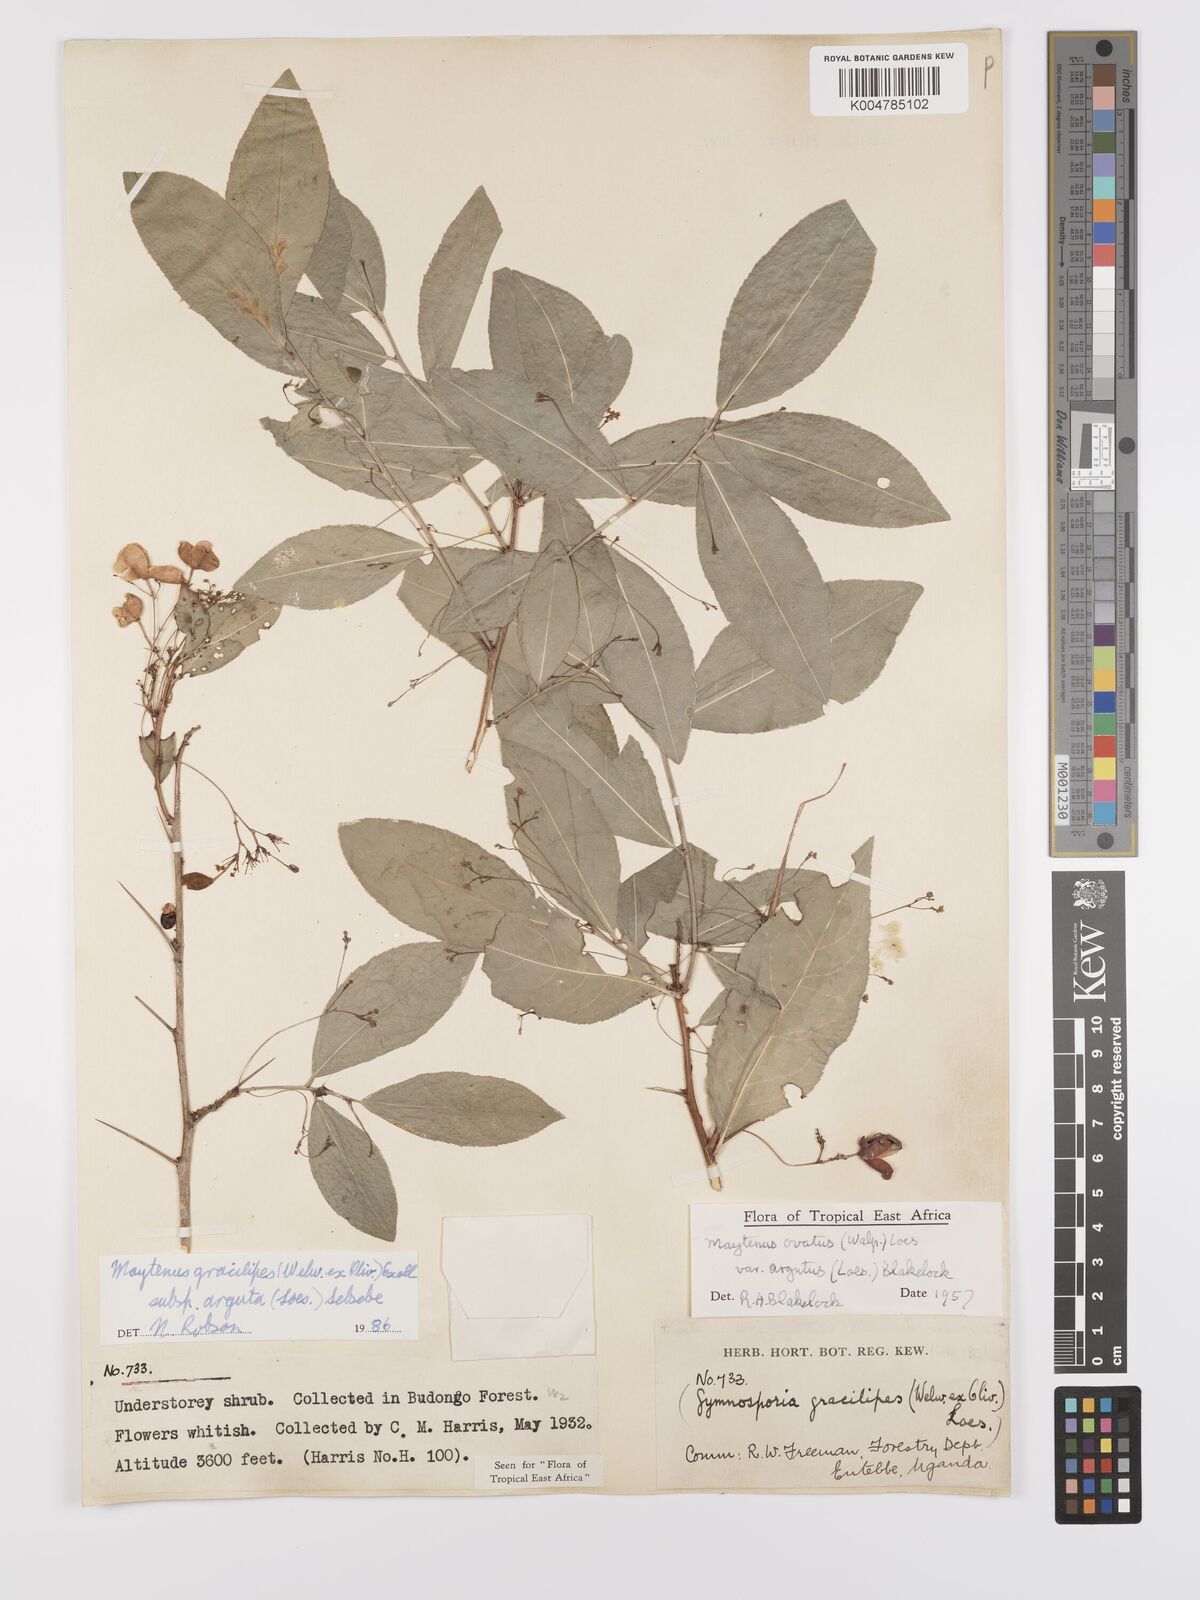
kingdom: Plantae
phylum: Tracheophyta
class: Magnoliopsida
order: Celastrales
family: Celastraceae
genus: Gymnosporia
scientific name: Gymnosporia gracilipes
